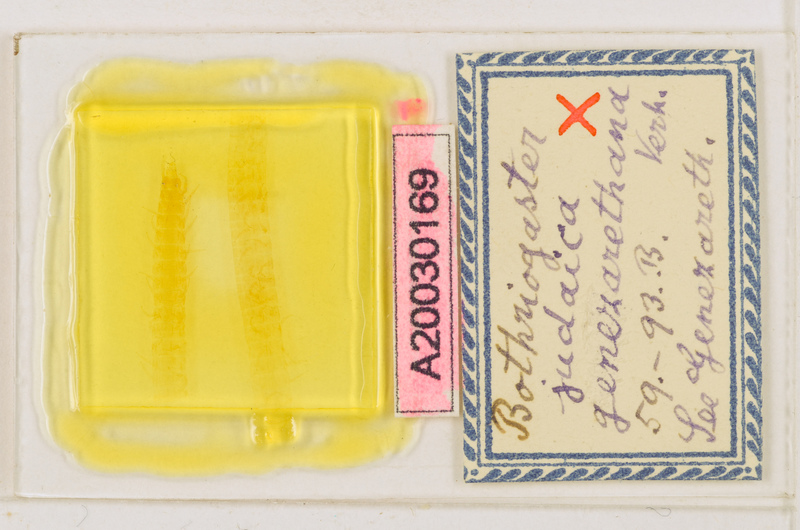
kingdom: Animalia
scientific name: Animalia
